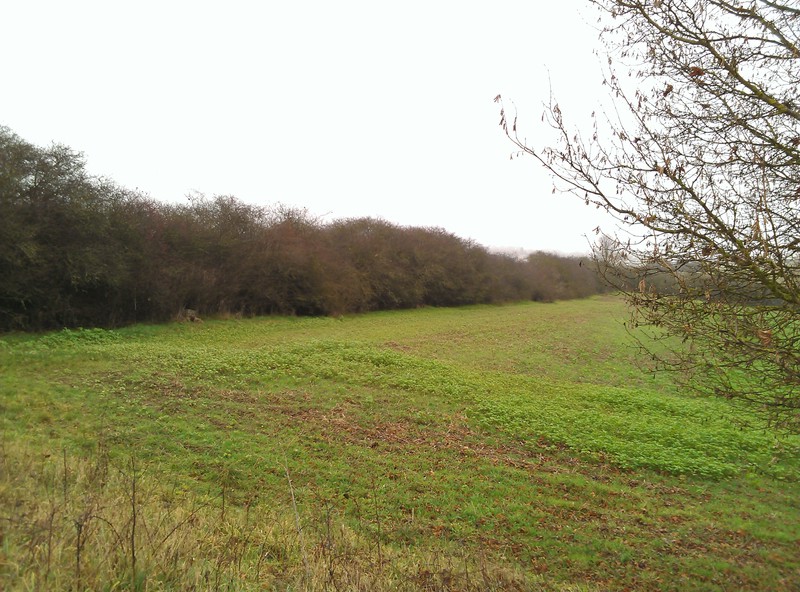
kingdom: Fungi
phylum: Ascomycota
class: Arthoniomycetes
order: Arthoniales
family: Arthoniaceae
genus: Briancoppinsia
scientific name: Briancoppinsia cytospora
